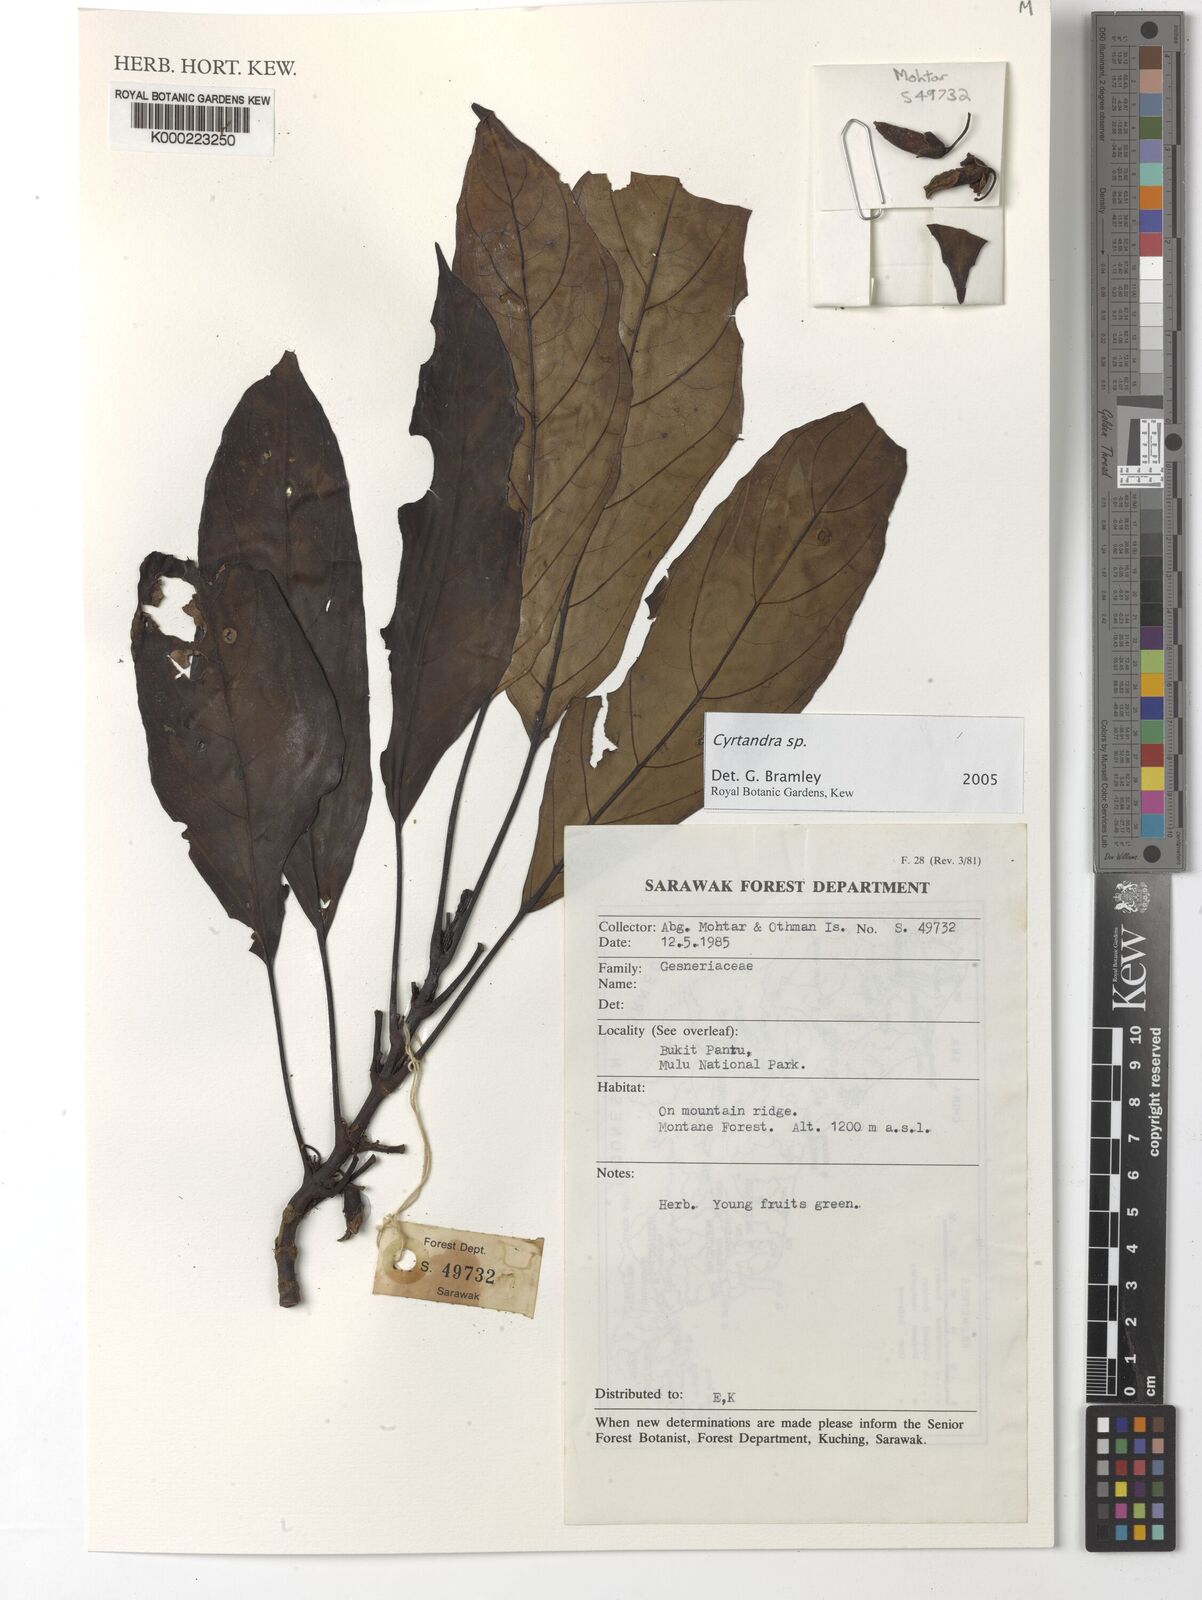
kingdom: Plantae
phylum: Tracheophyta
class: Magnoliopsida
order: Lamiales
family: Gesneriaceae
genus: Cyrtandra
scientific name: Cyrtandra
